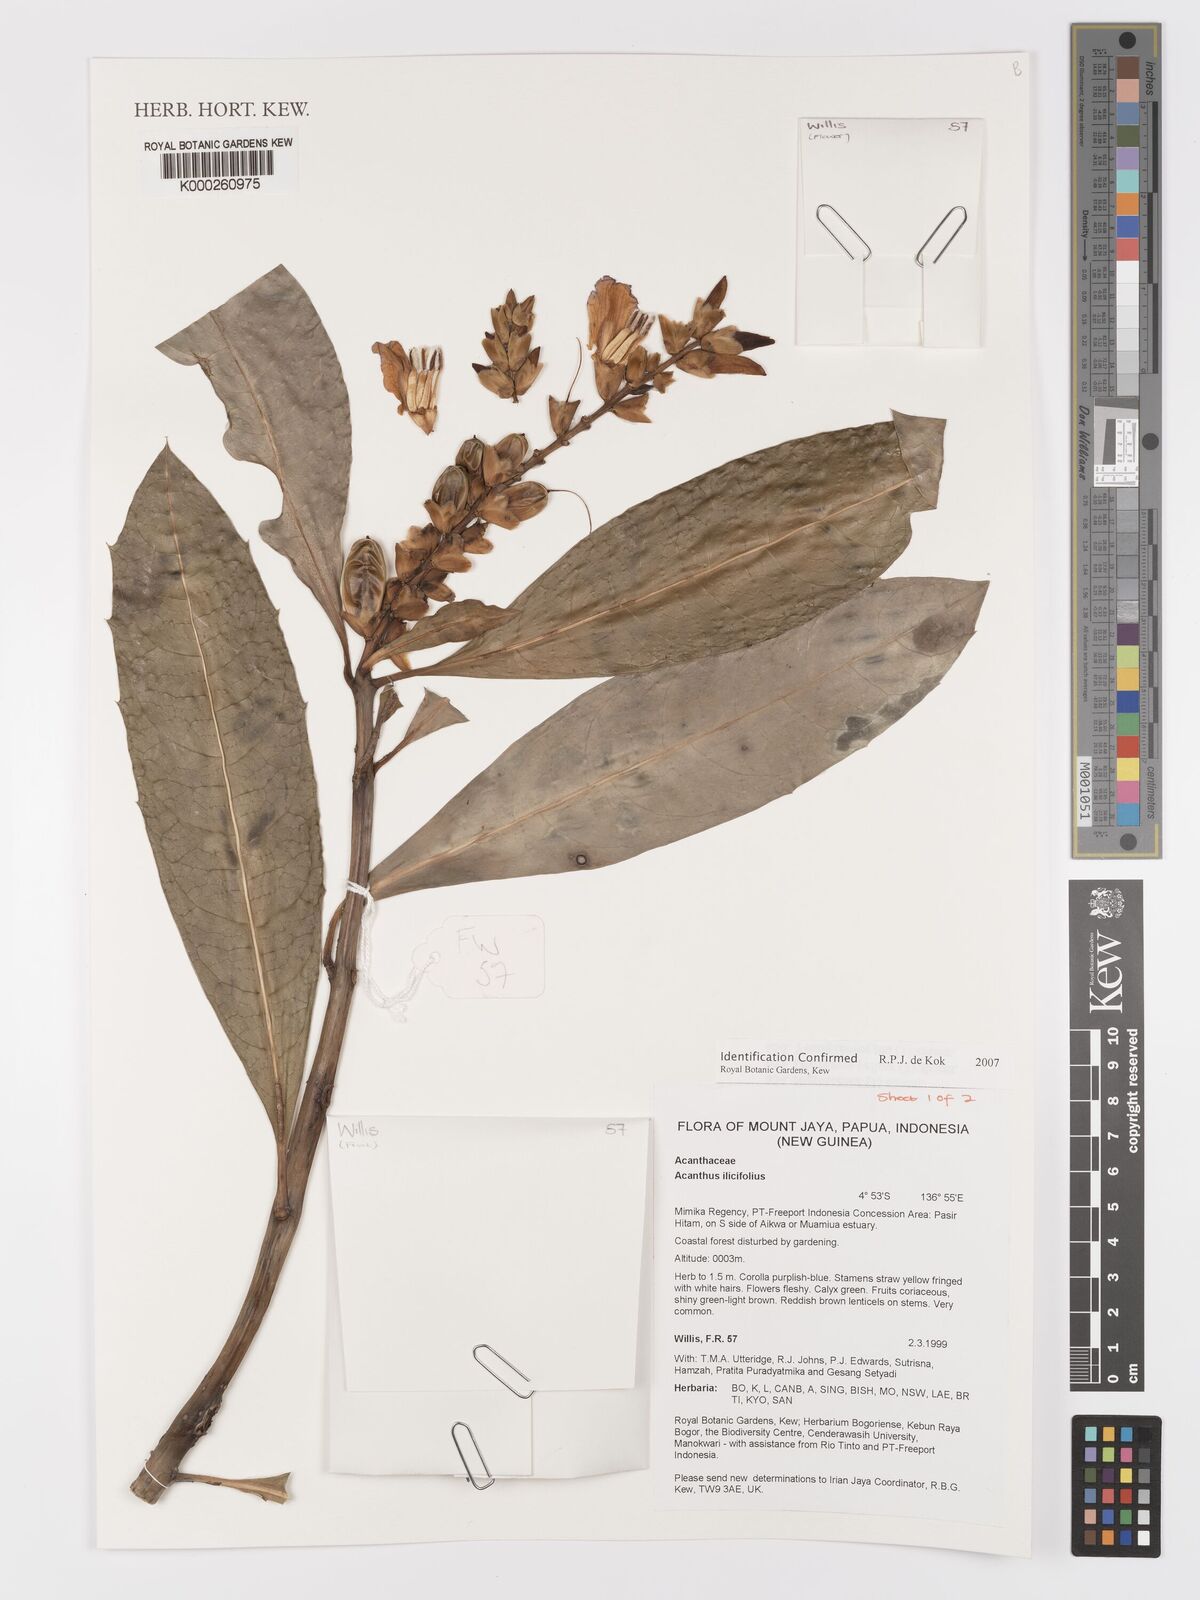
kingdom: Plantae
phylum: Tracheophyta
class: Magnoliopsida
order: Lamiales
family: Acanthaceae
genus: Acanthus
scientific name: Acanthus ilicifolius
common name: Holy mangrove
